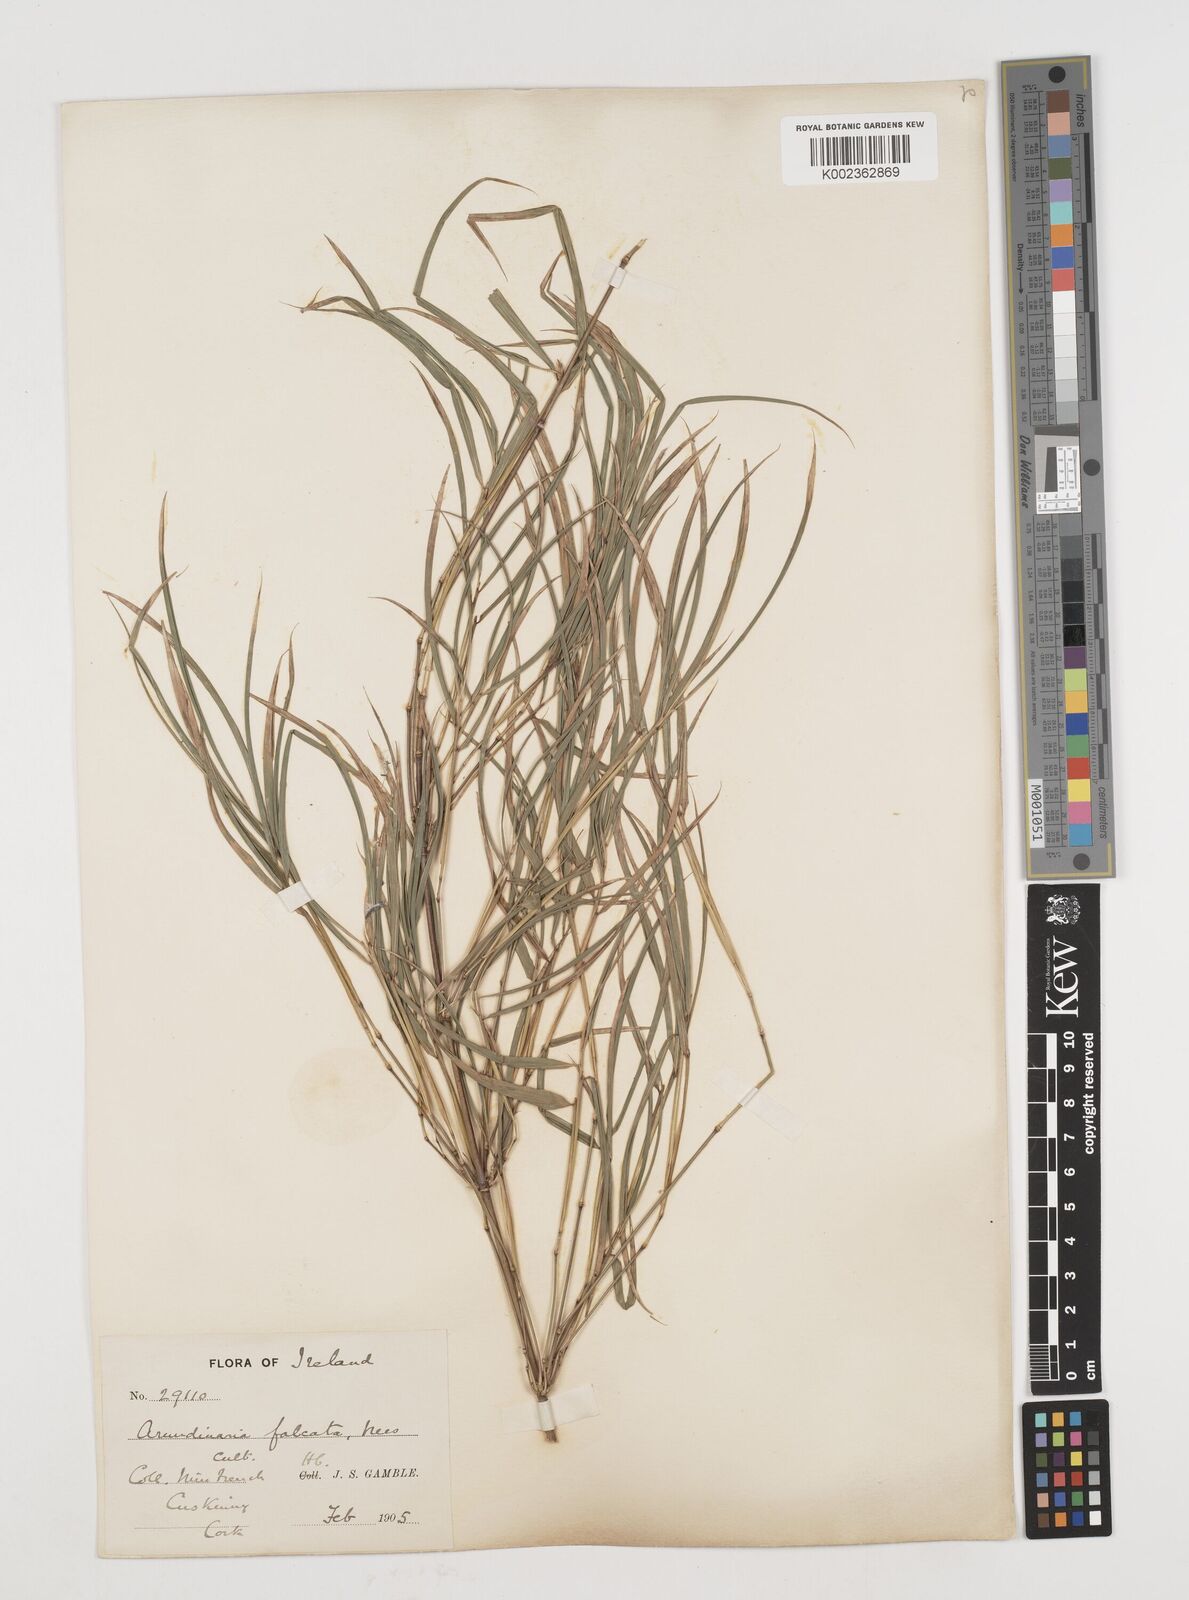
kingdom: Plantae
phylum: Tracheophyta
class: Liliopsida
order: Poales
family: Poaceae
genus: Drepanostachyum
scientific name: Drepanostachyum falcatum
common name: Himalayan bamboo
